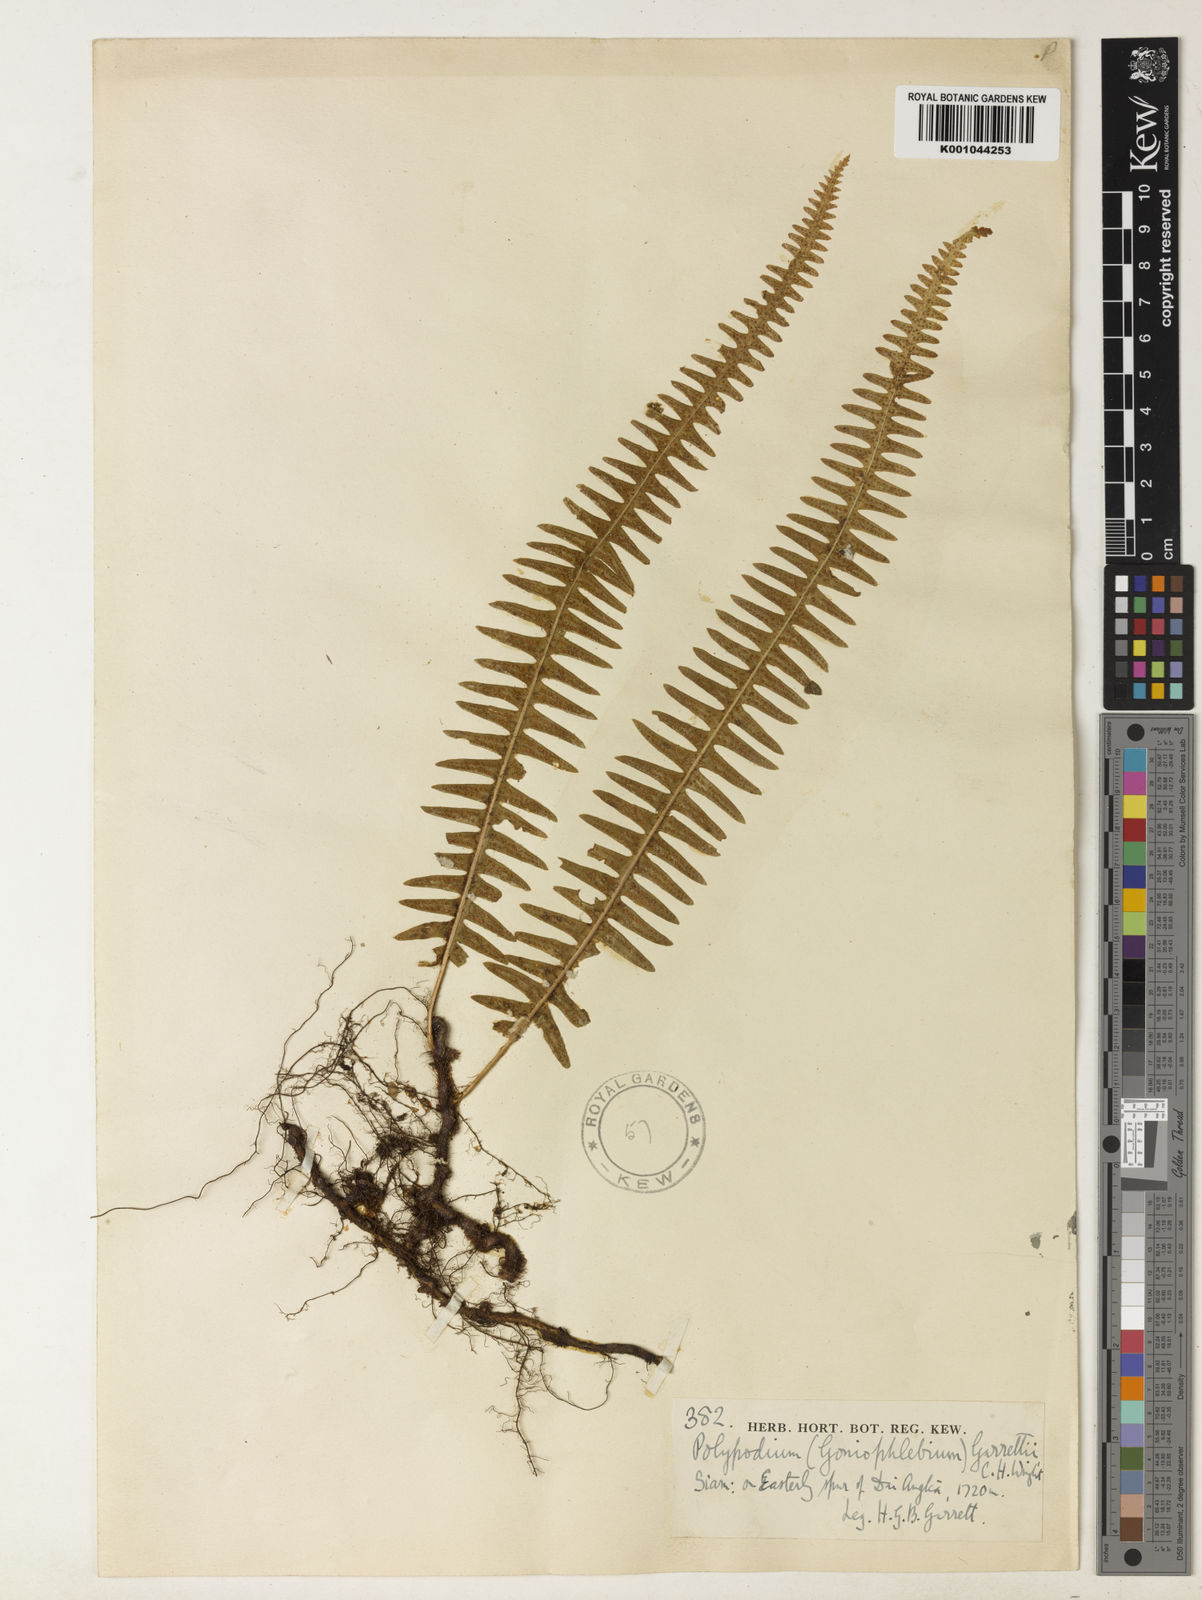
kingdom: Plantae
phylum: Tracheophyta
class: Polypodiopsida
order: Polypodiales
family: Polypodiaceae
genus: Goniophlebium
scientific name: Goniophlebium lachnopus
